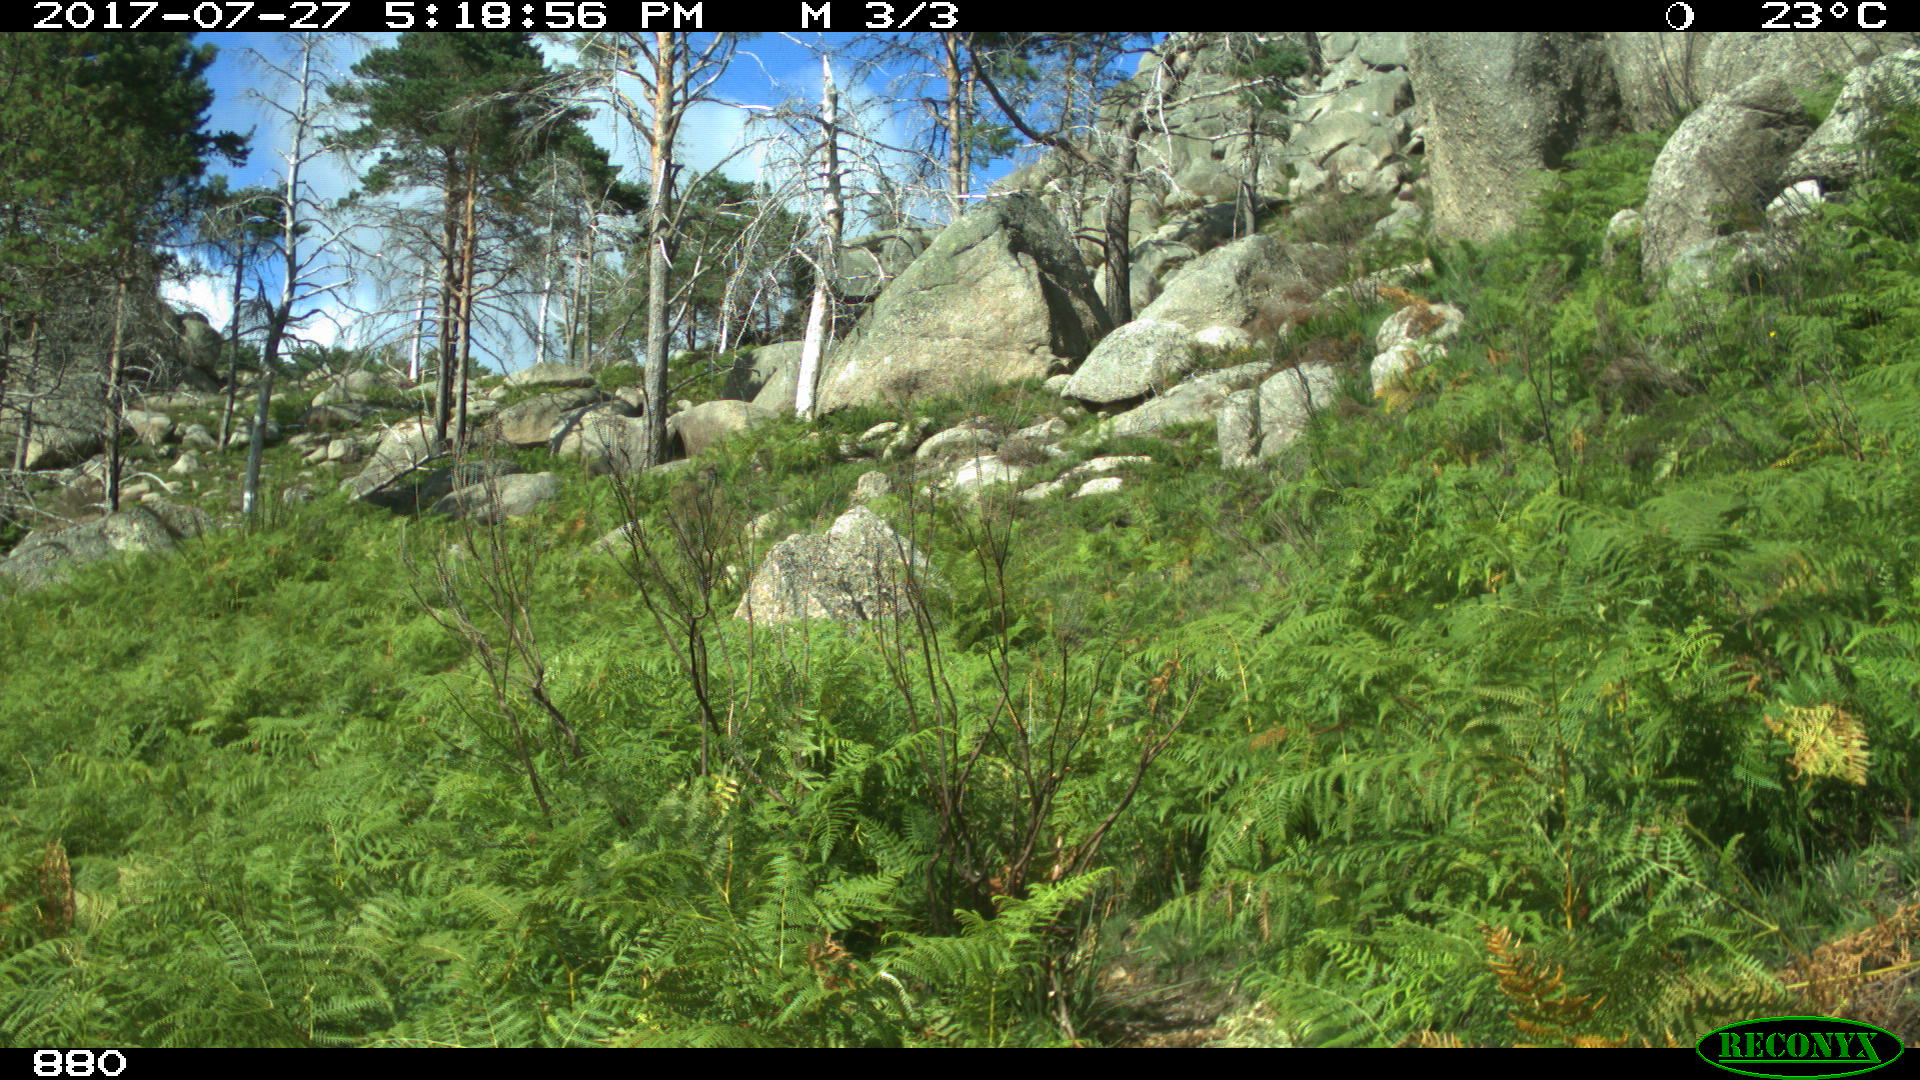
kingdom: Animalia
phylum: Chordata
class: Mammalia
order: Perissodactyla
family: Equidae
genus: Equus
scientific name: Equus caballus
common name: Horse
